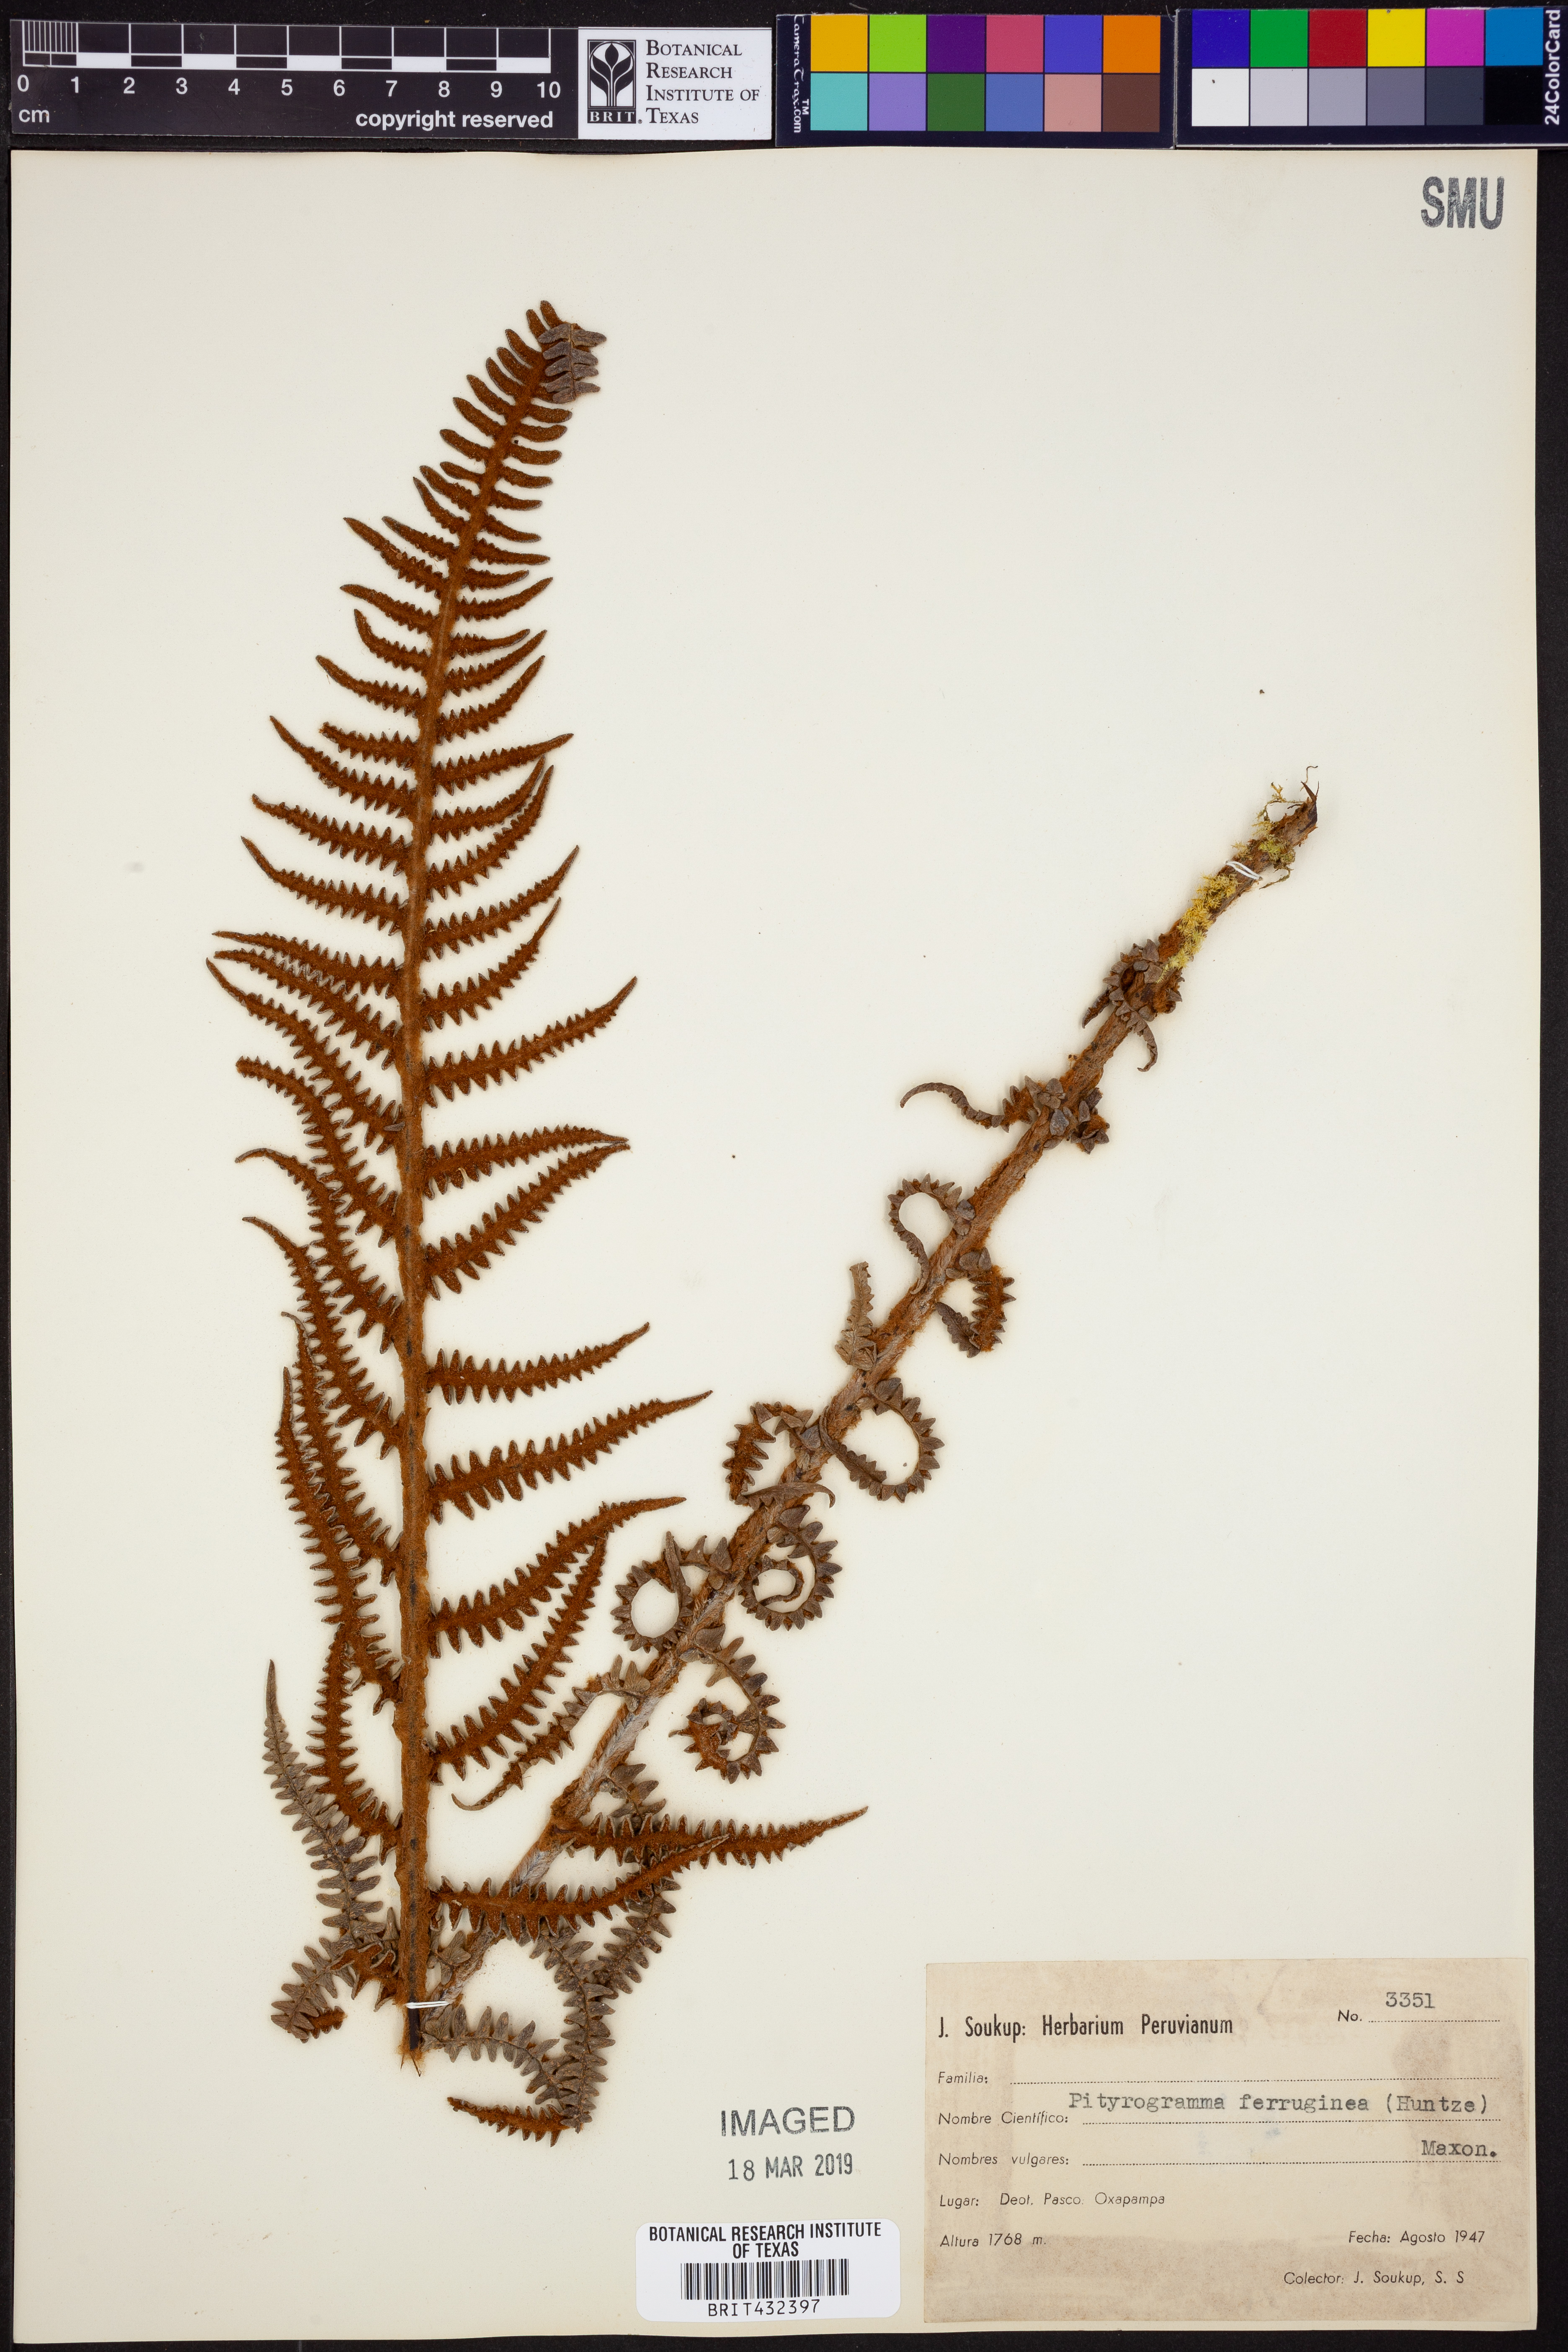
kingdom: Plantae
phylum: Tracheophyta
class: Polypodiopsida
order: Polypodiales
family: Pteridaceae
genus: Pityrogramma
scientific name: Pityrogramma ferruginea
